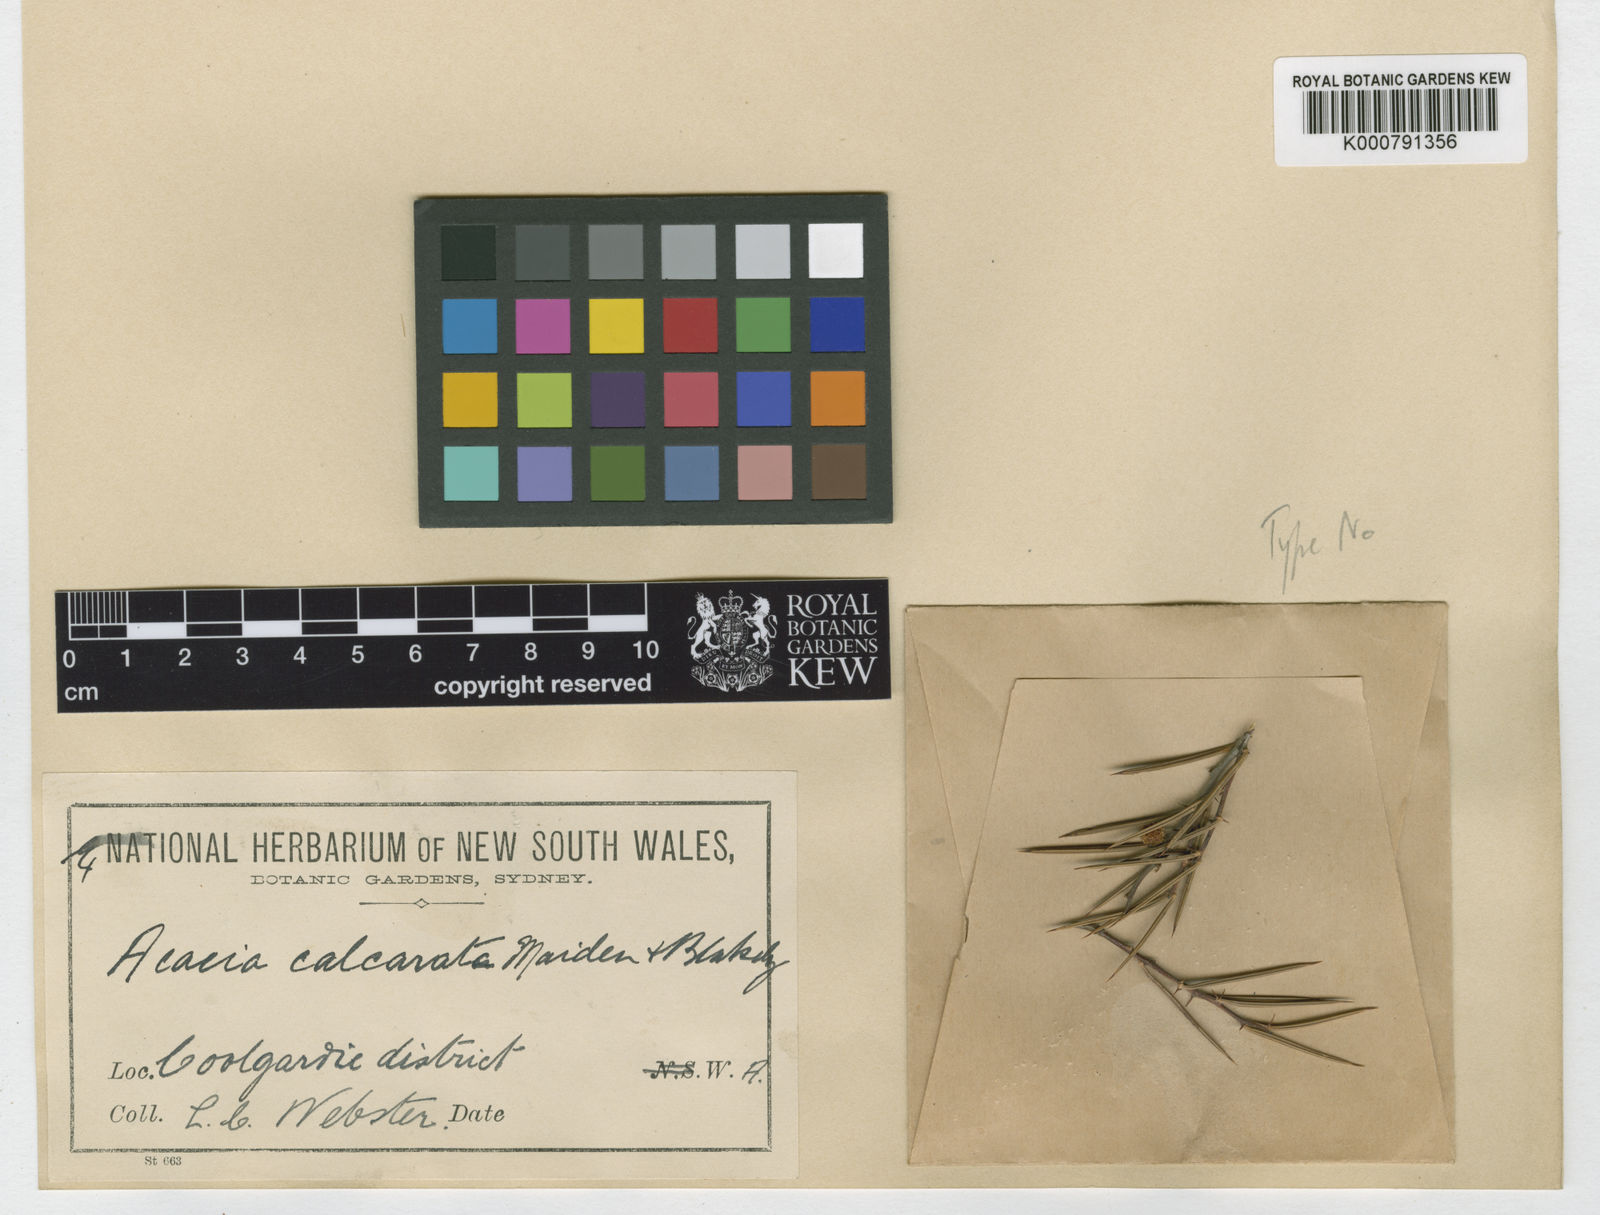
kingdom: Plantae
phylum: Tracheophyta
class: Magnoliopsida
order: Fabales
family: Fabaceae
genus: Acacia
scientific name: Acacia calcarata
